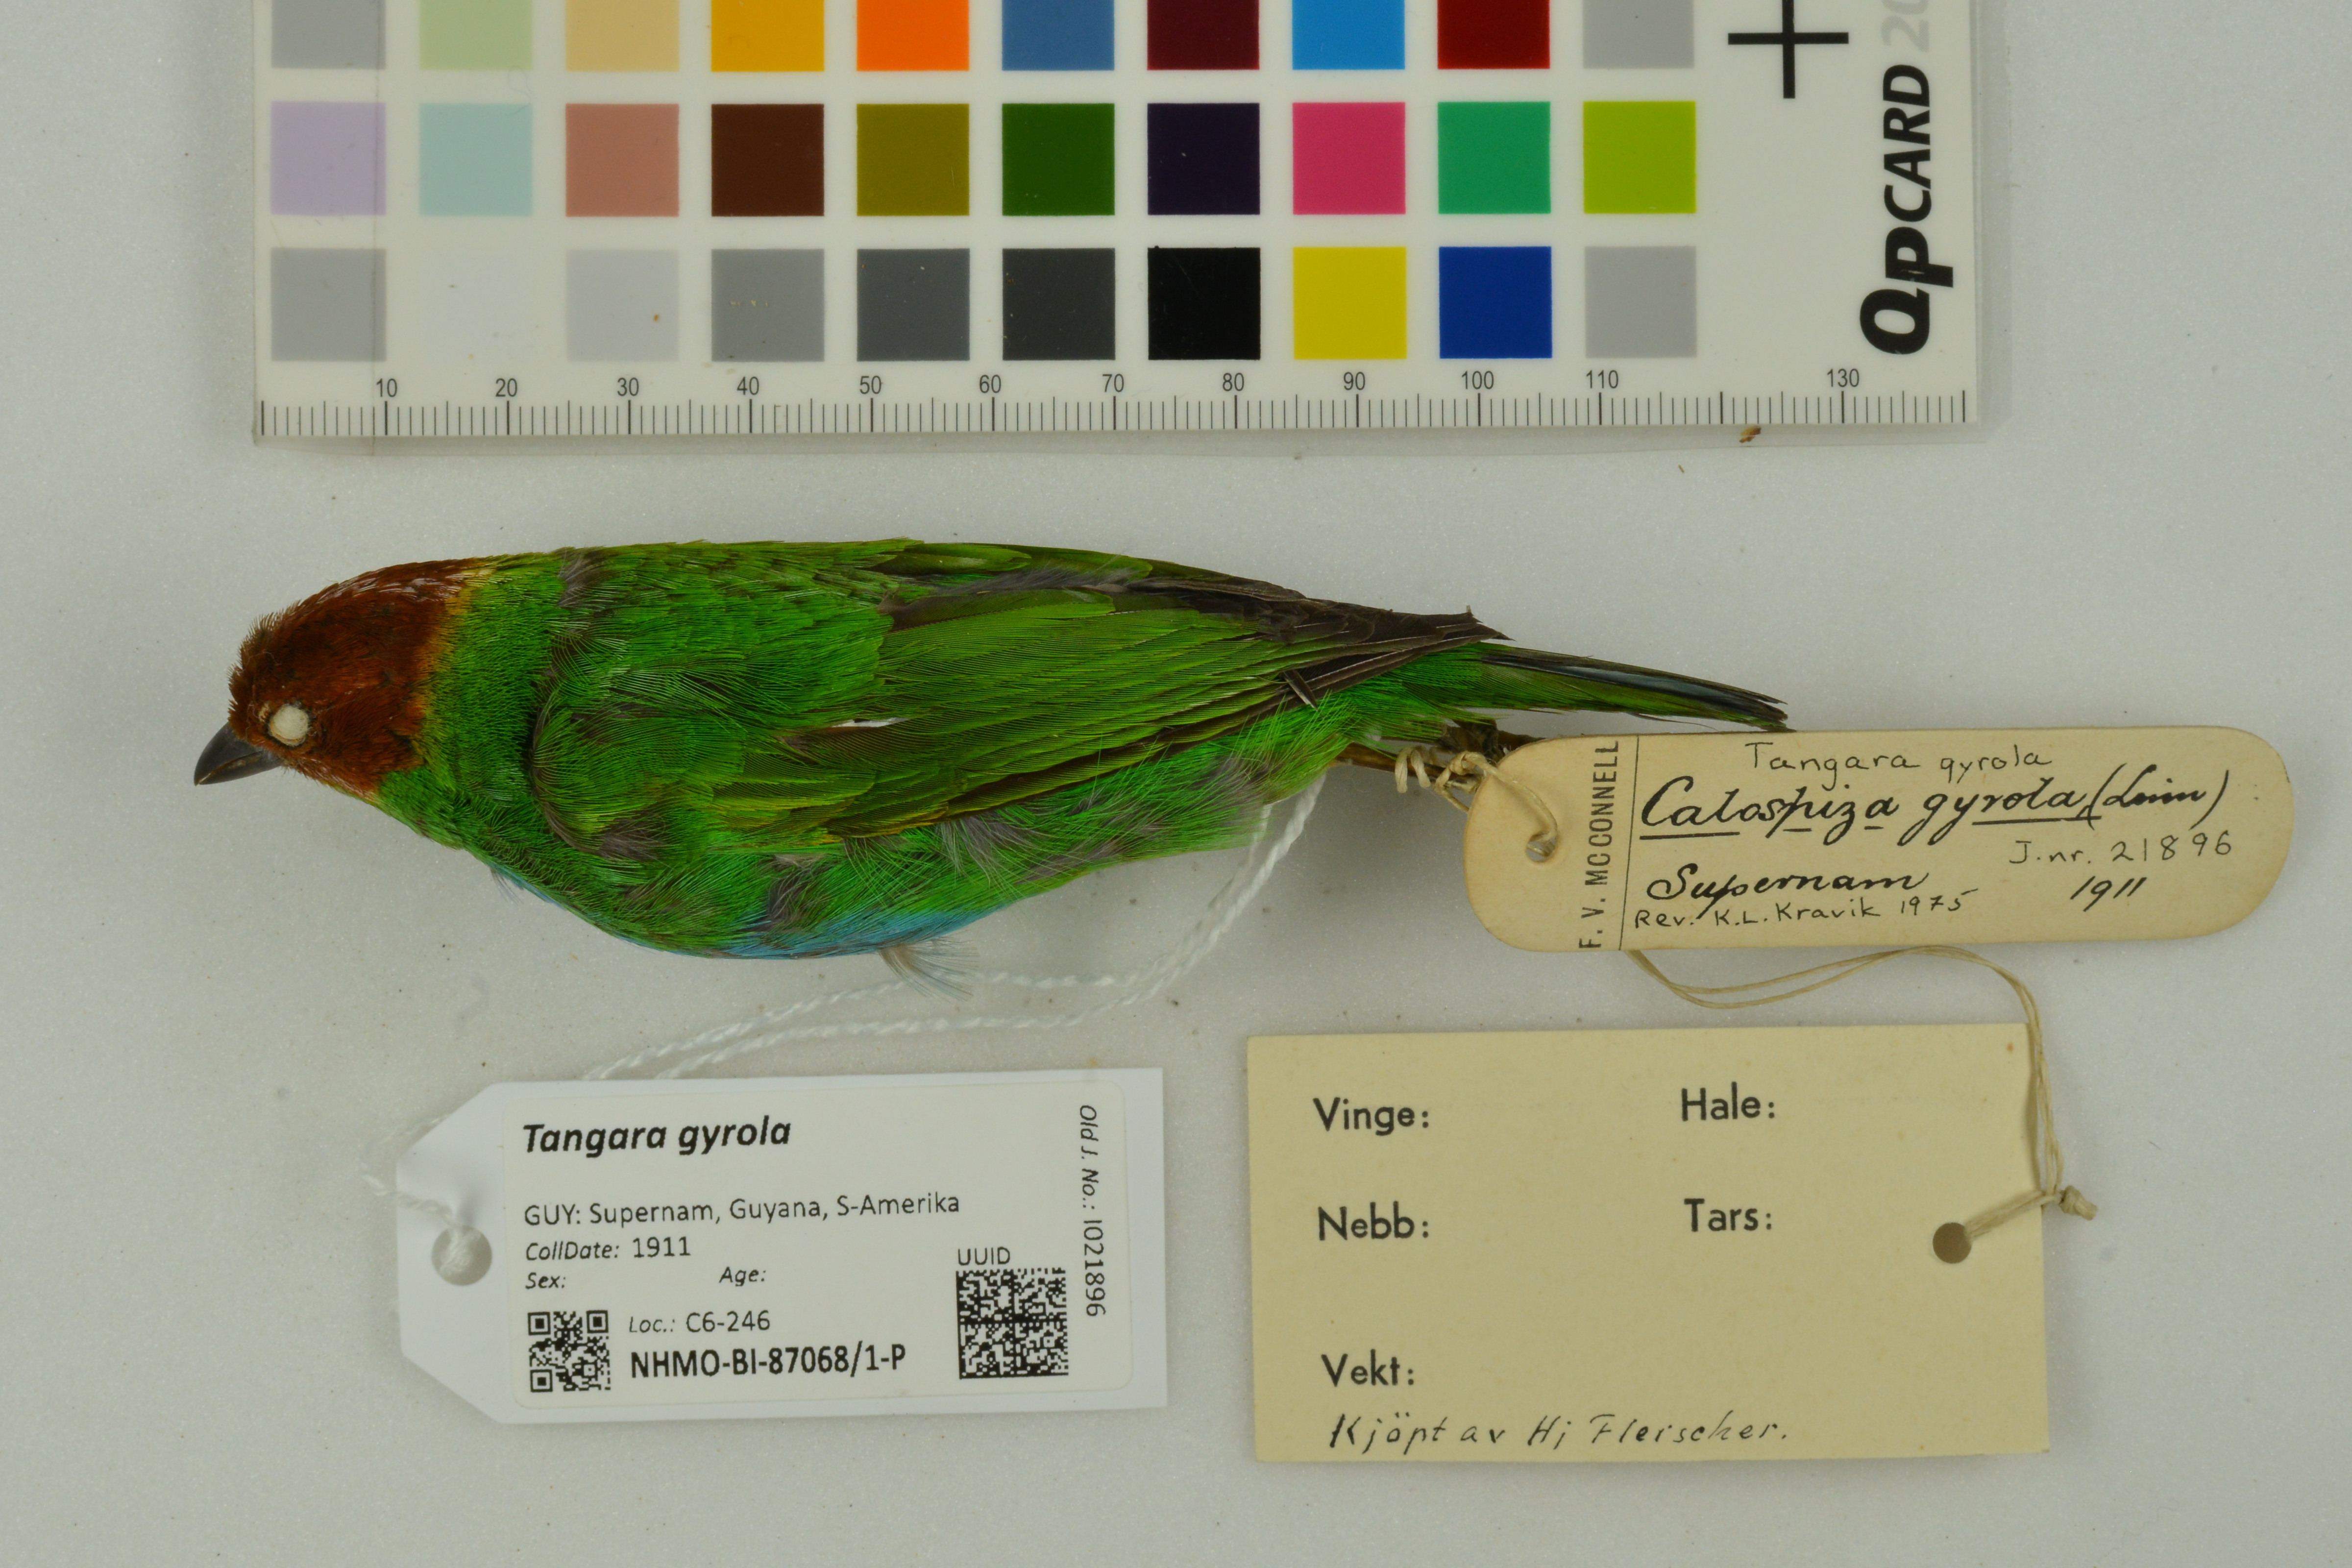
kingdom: Animalia
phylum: Chordata
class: Aves
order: Passeriformes
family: Thraupidae
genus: Tangara
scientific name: Tangara gyrola
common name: Bay-headed tanager
